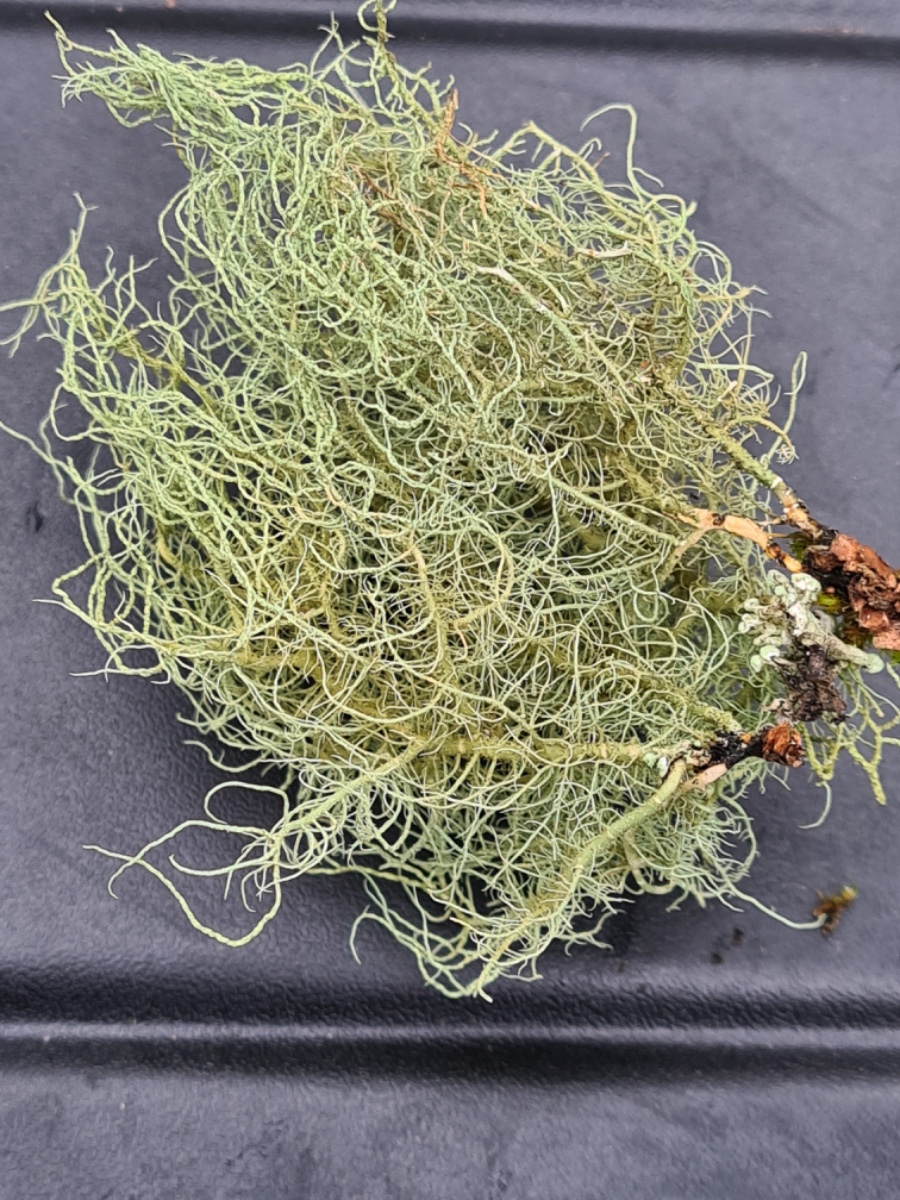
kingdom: Fungi
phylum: Ascomycota
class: Lecanoromycetes
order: Lecanorales
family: Parmeliaceae
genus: Usnea
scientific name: Usnea subfloridana
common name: busket skæglav
